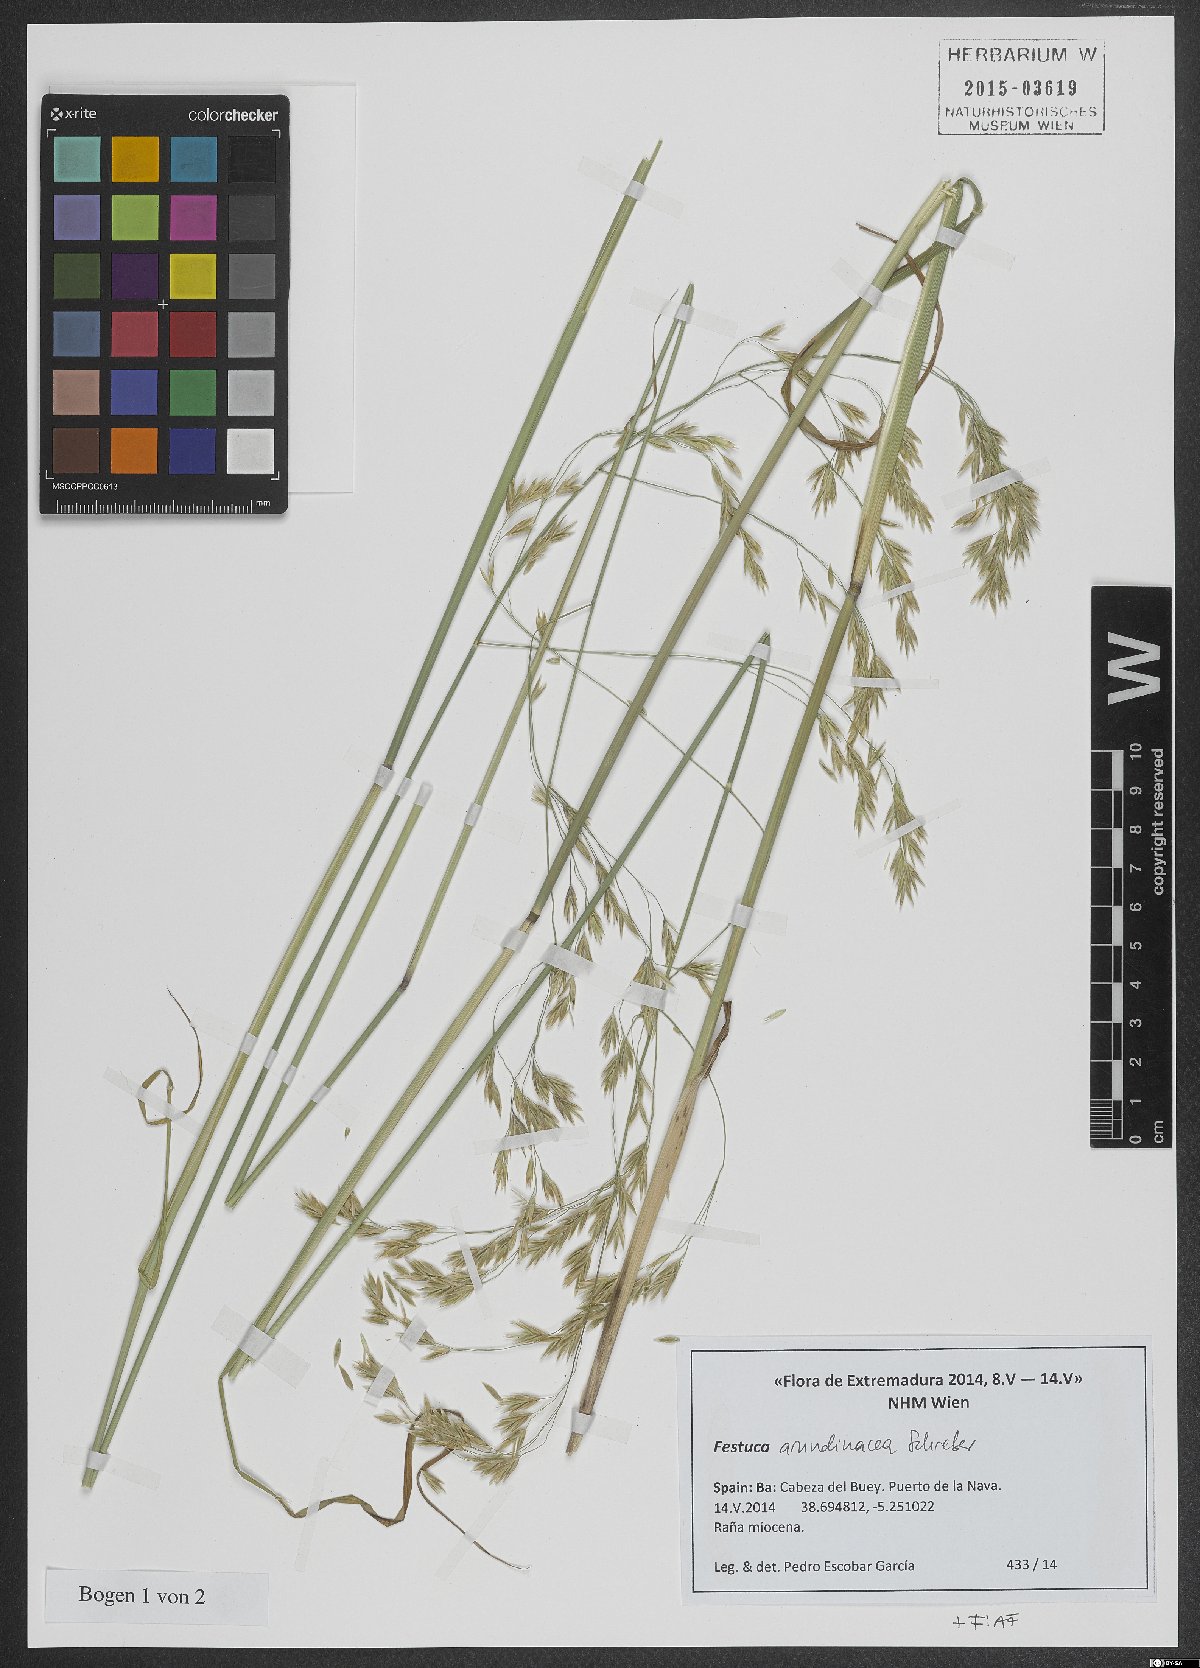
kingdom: Plantae
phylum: Tracheophyta
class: Liliopsida
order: Poales
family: Poaceae
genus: Lolium
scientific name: Lolium arundinaceum
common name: Reed fescue
